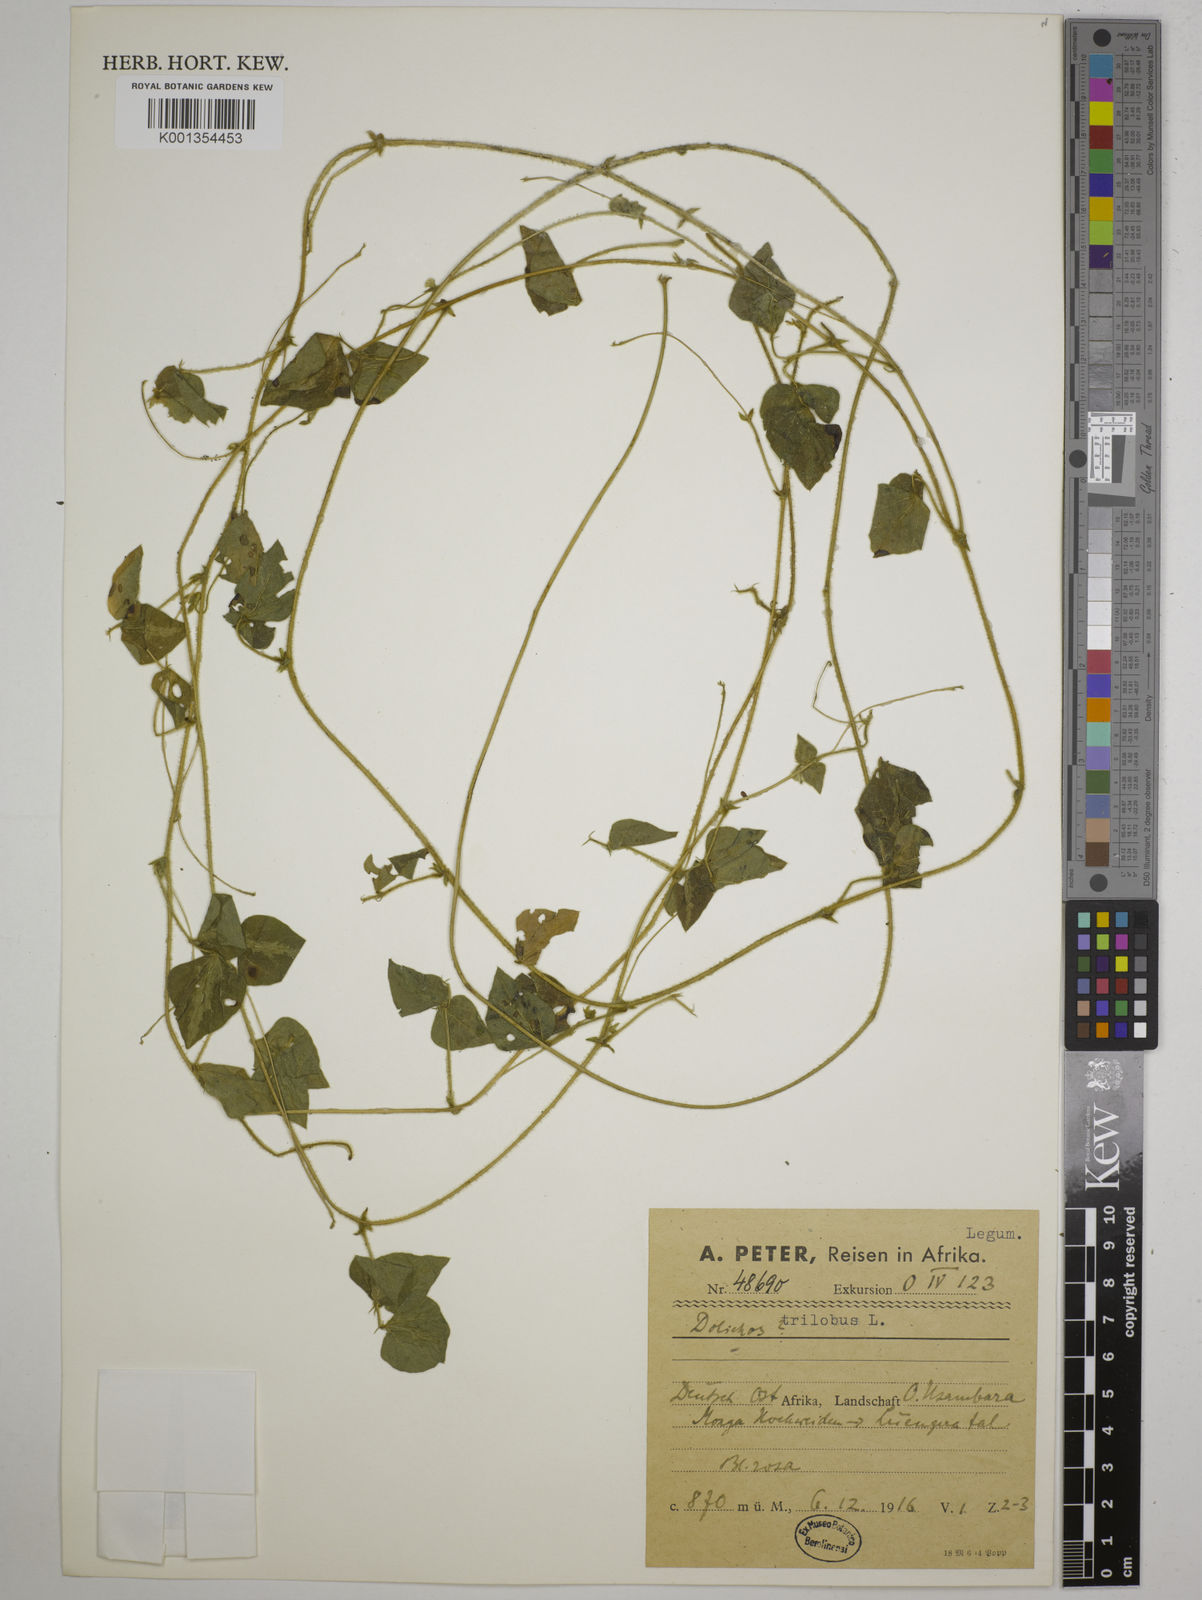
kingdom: Plantae
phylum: Tracheophyta
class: Magnoliopsida
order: Fabales
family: Fabaceae
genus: Dolichos
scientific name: Dolichos
